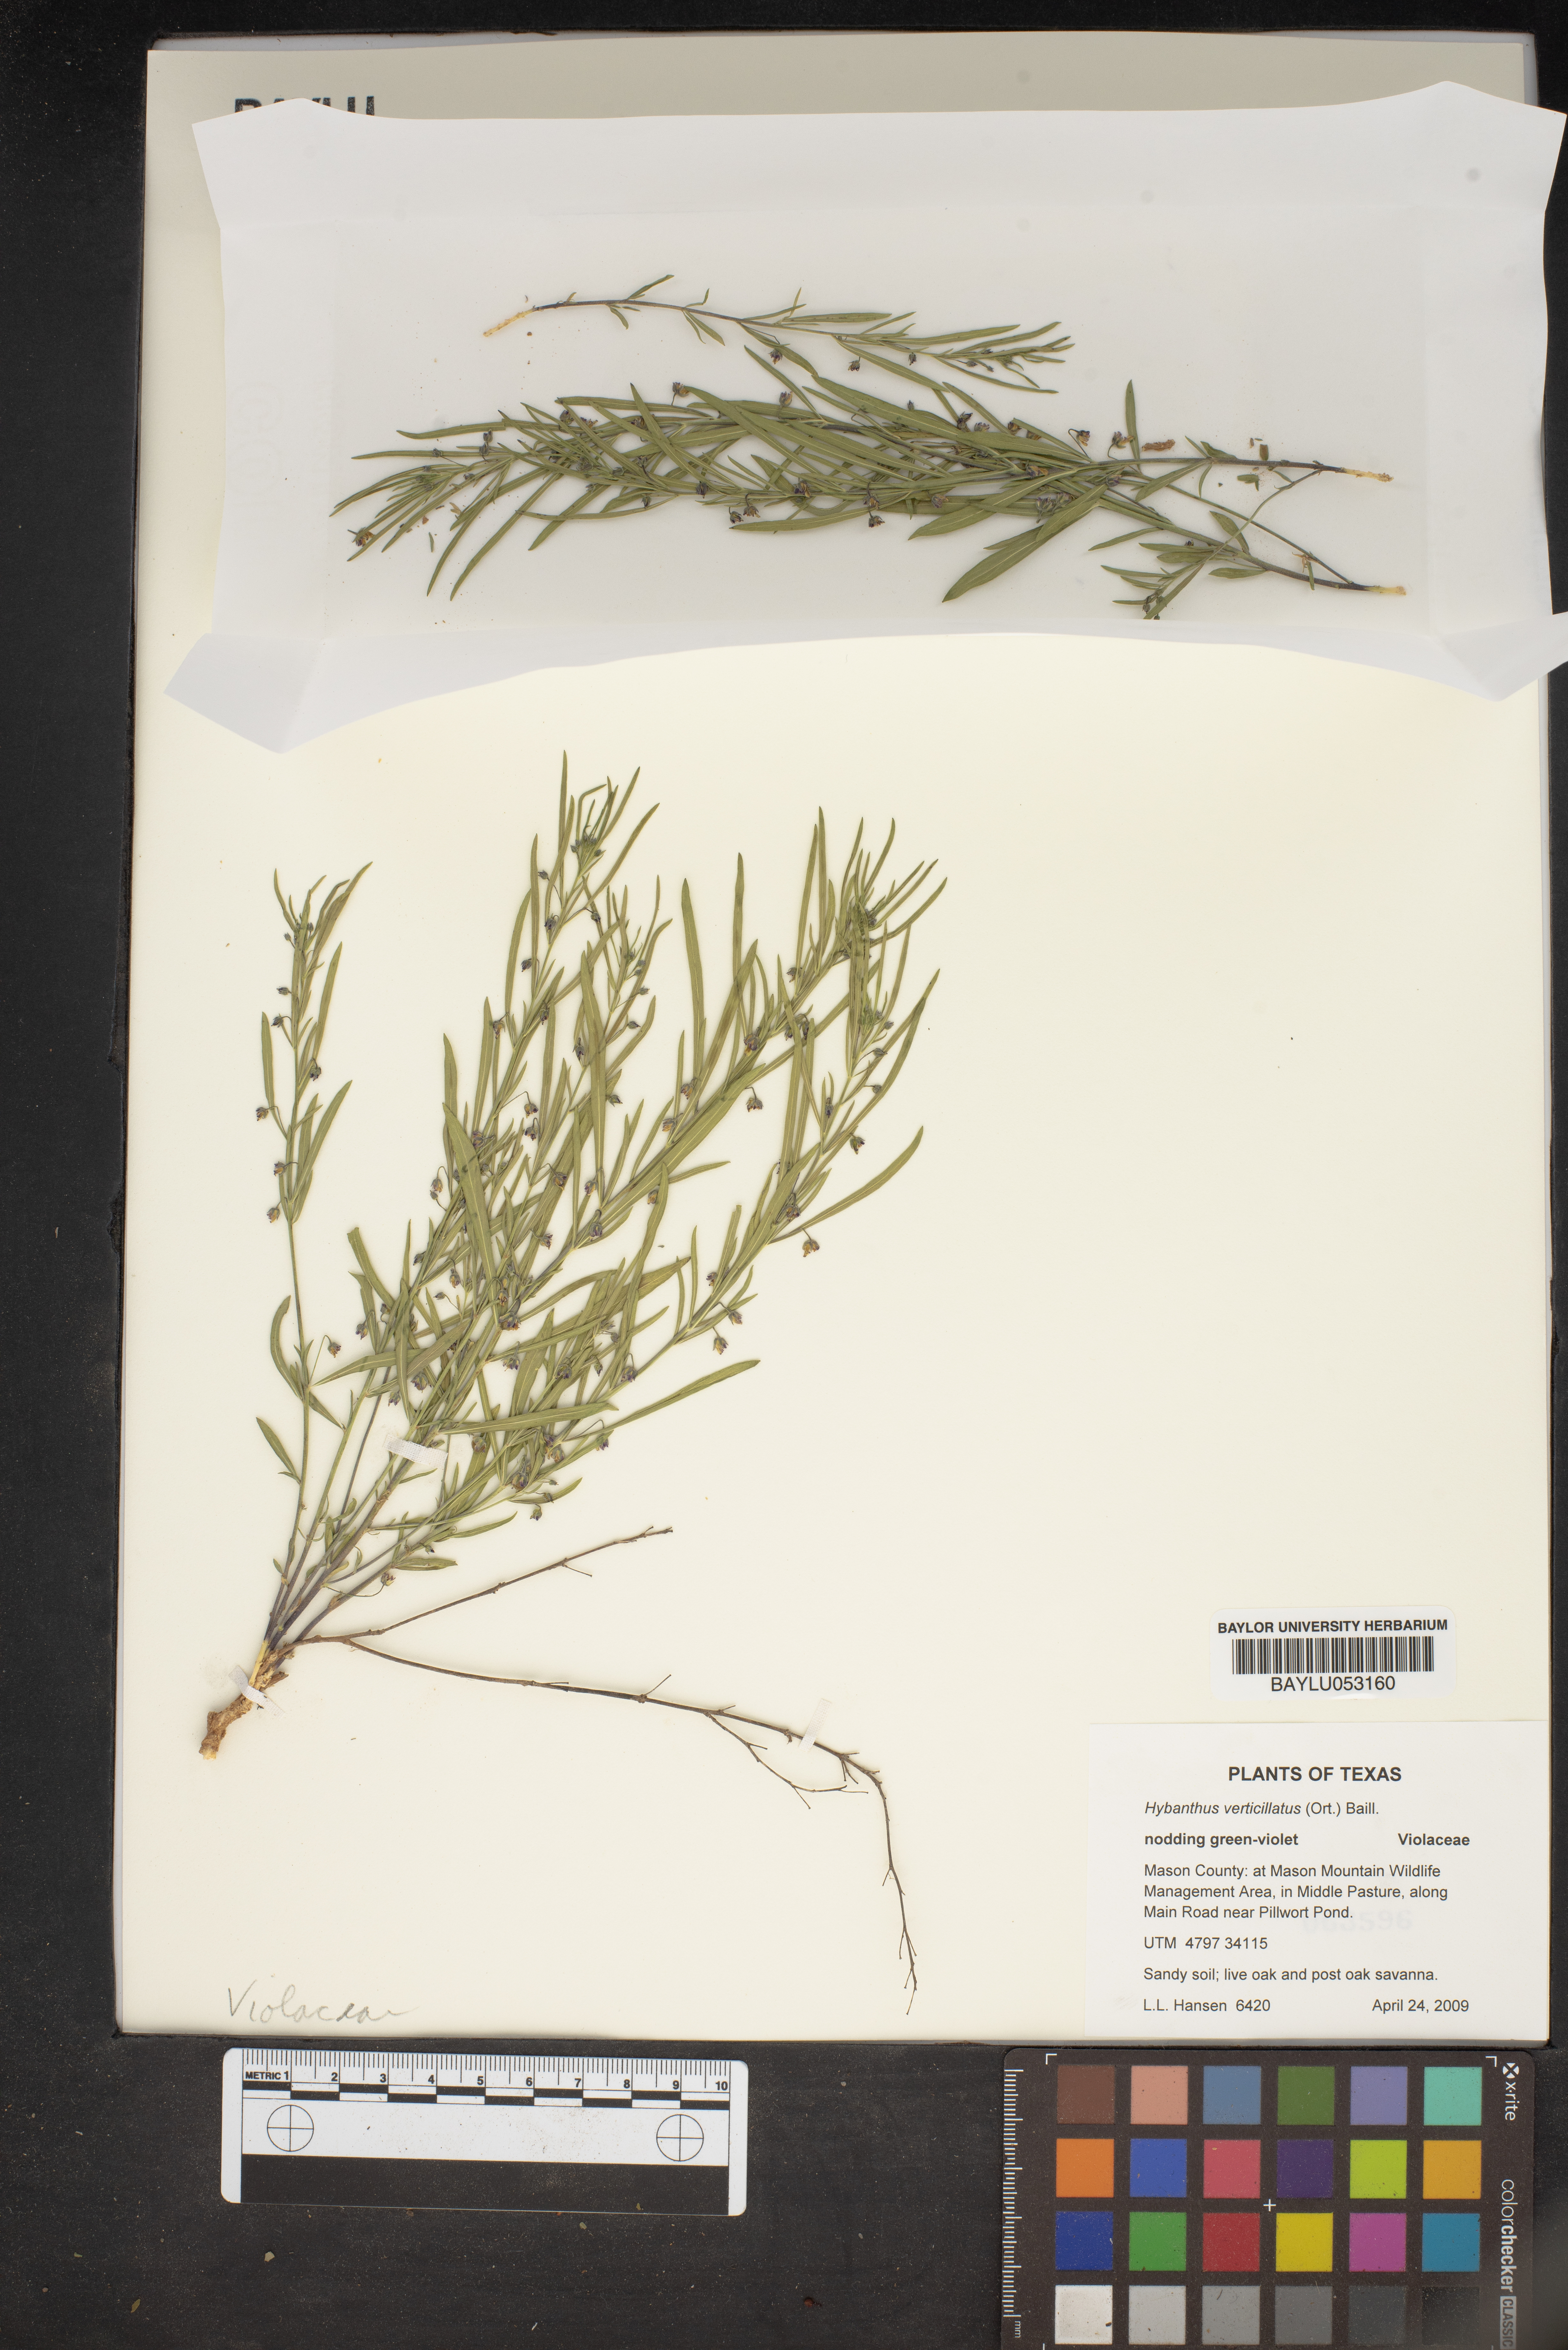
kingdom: Plantae
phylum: Tracheophyta
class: Magnoliopsida
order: Malpighiales
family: Violaceae
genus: Pombalia
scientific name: Pombalia verticillata
